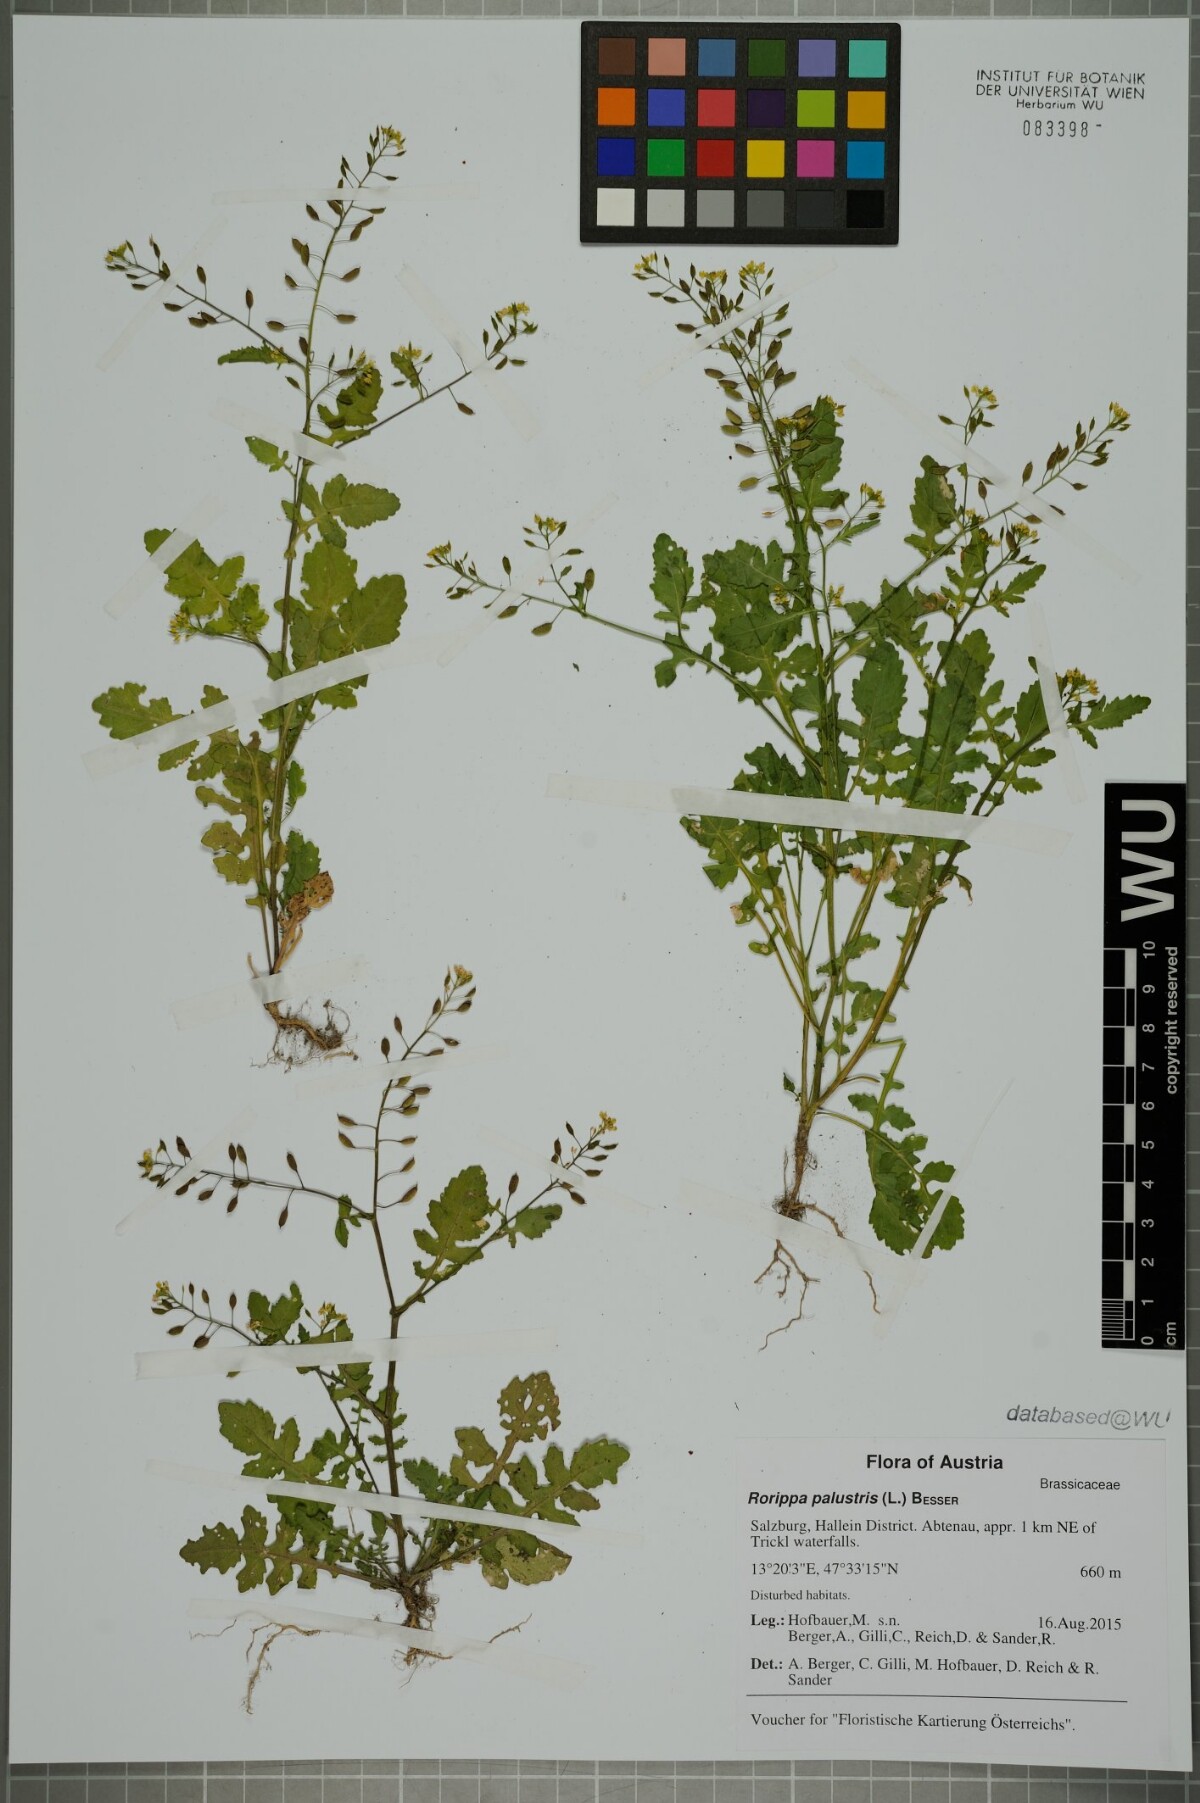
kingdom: Plantae
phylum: Tracheophyta
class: Magnoliopsida
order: Brassicales
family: Brassicaceae
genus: Rorippa
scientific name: Rorippa palustris
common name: Marsh yellow-cress
